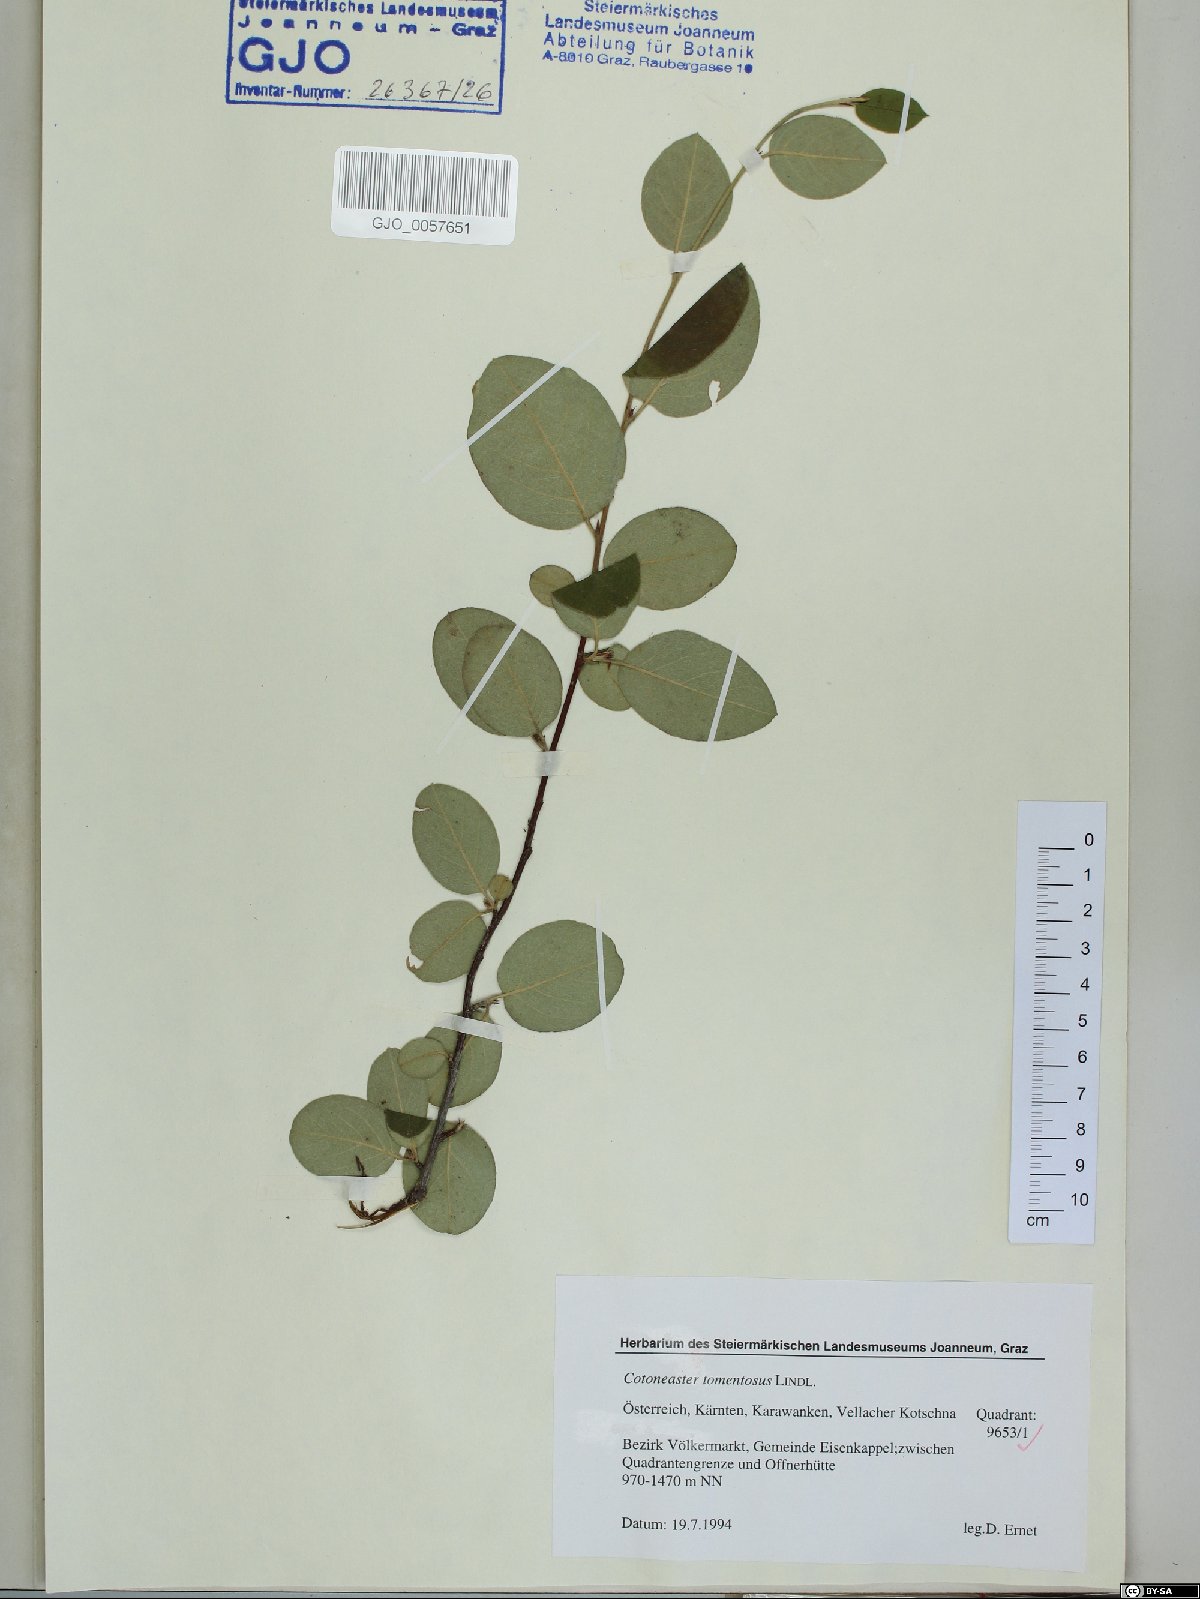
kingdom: Plantae
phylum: Tracheophyta
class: Magnoliopsida
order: Rosales
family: Rosaceae
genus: Cotoneaster
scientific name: Cotoneaster tomentosus
